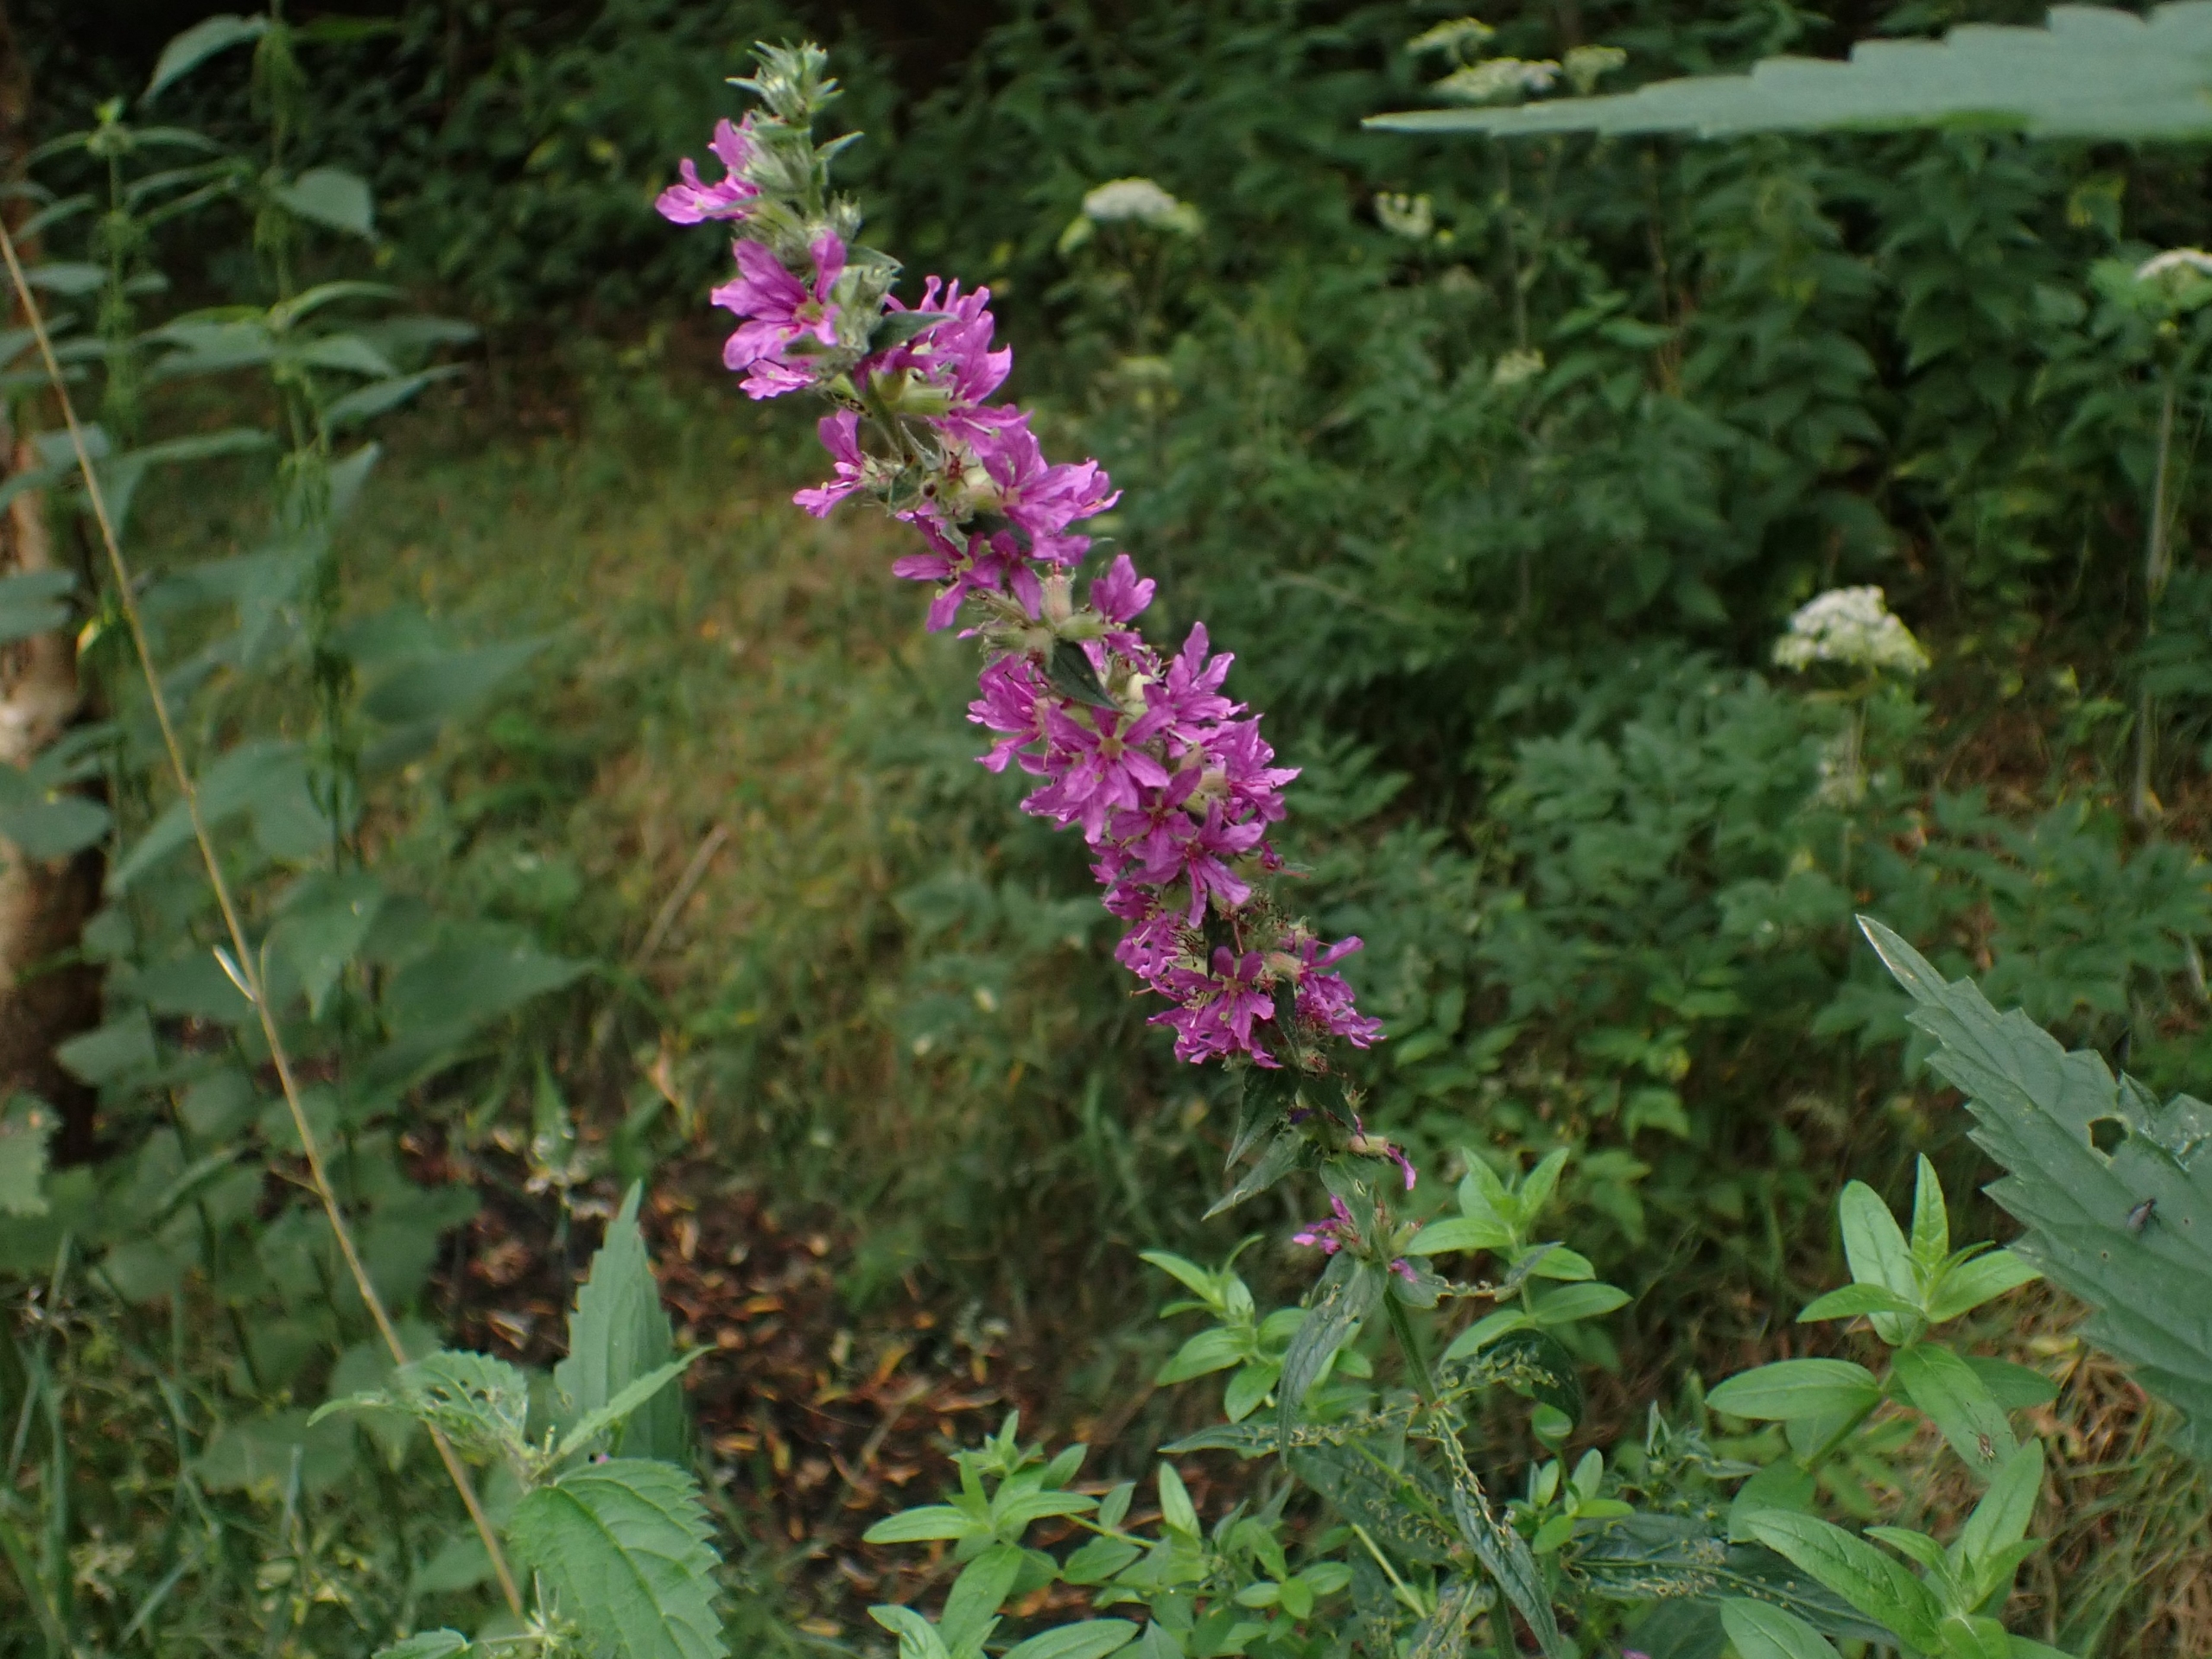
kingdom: Plantae
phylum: Tracheophyta
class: Magnoliopsida
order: Myrtales
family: Lythraceae
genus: Lythrum
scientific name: Lythrum salicaria
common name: Kattehale
